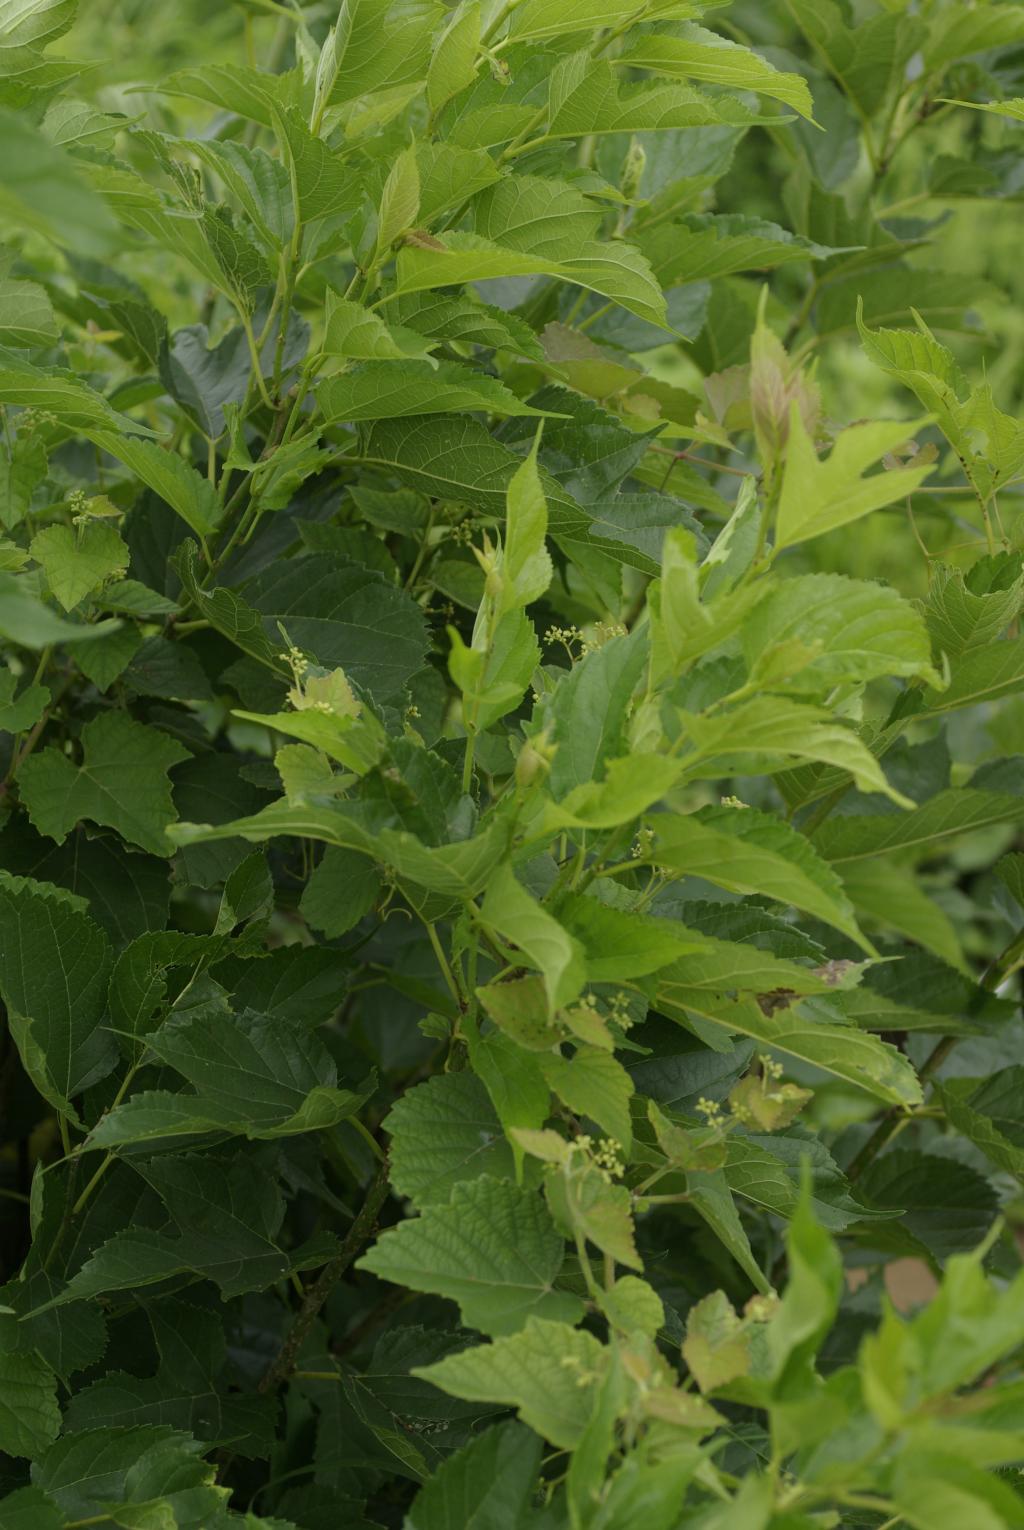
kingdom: Plantae
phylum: Tracheophyta
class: Magnoliopsida
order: Rosales
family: Moraceae
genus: Broussonetia
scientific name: Broussonetia papyrifera
